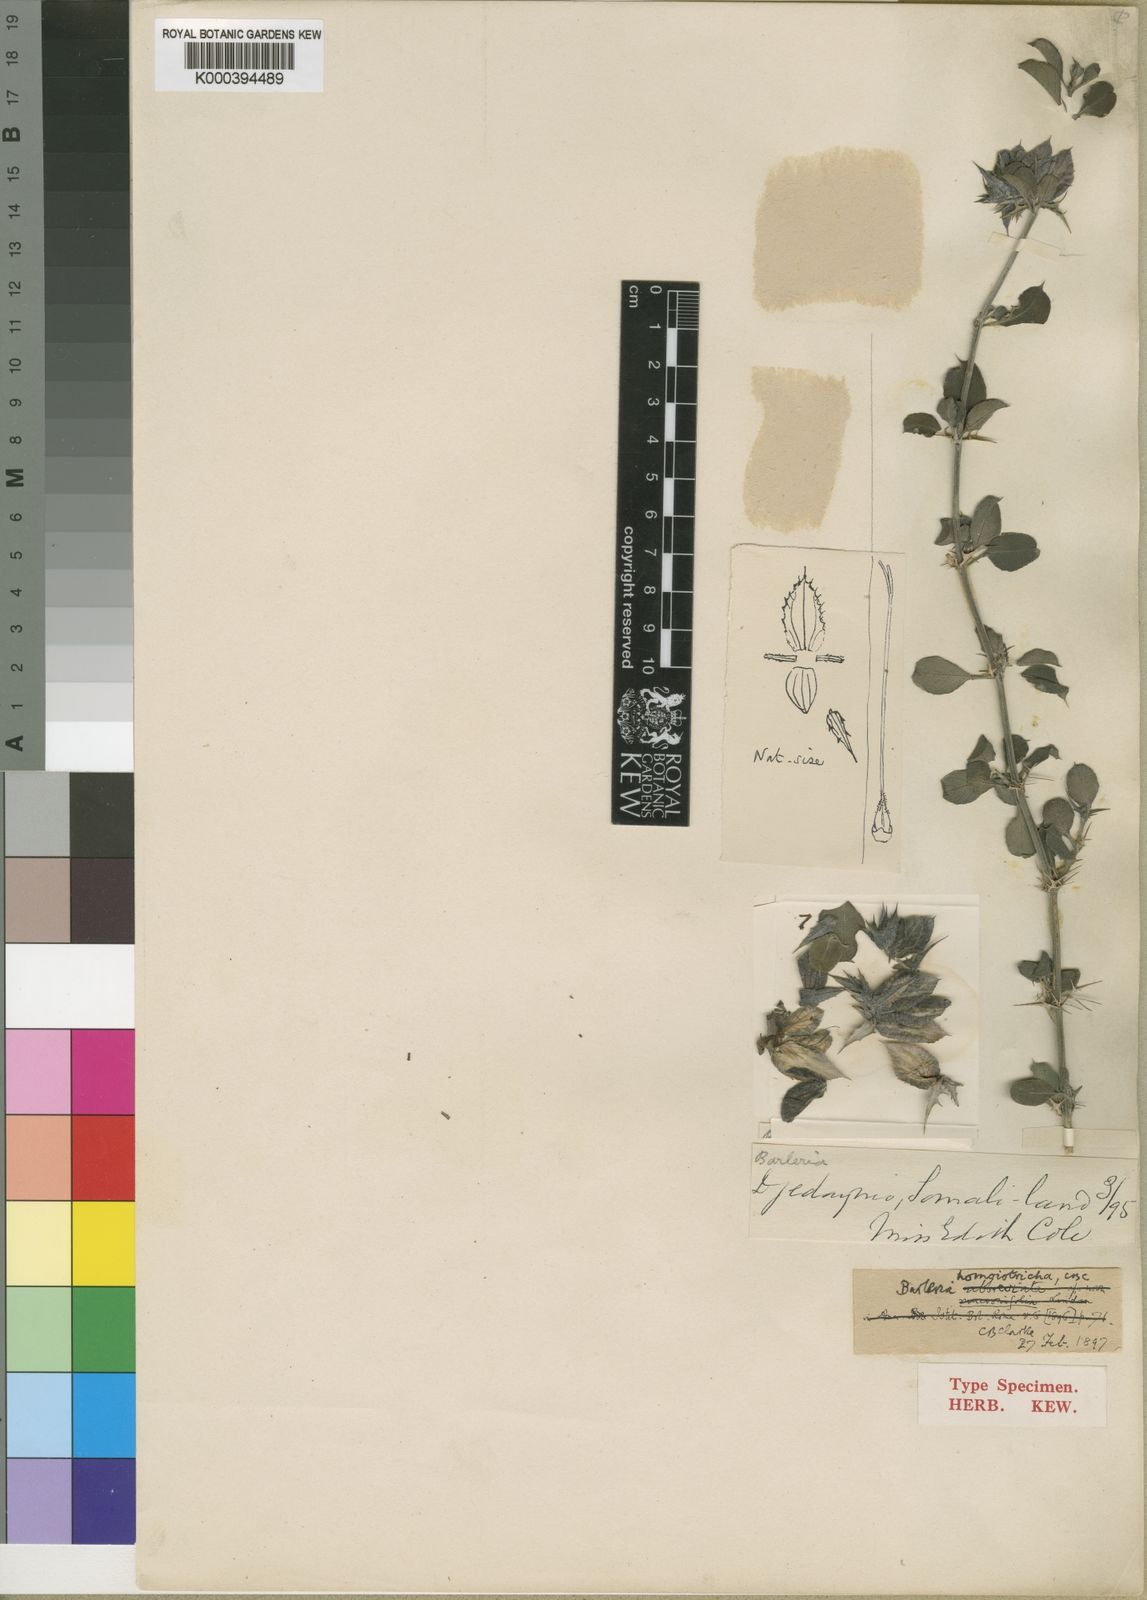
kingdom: Plantae
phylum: Tracheophyta
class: Magnoliopsida
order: Lamiales
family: Acanthaceae
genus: Barleria
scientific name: Barleria mucronifolia
